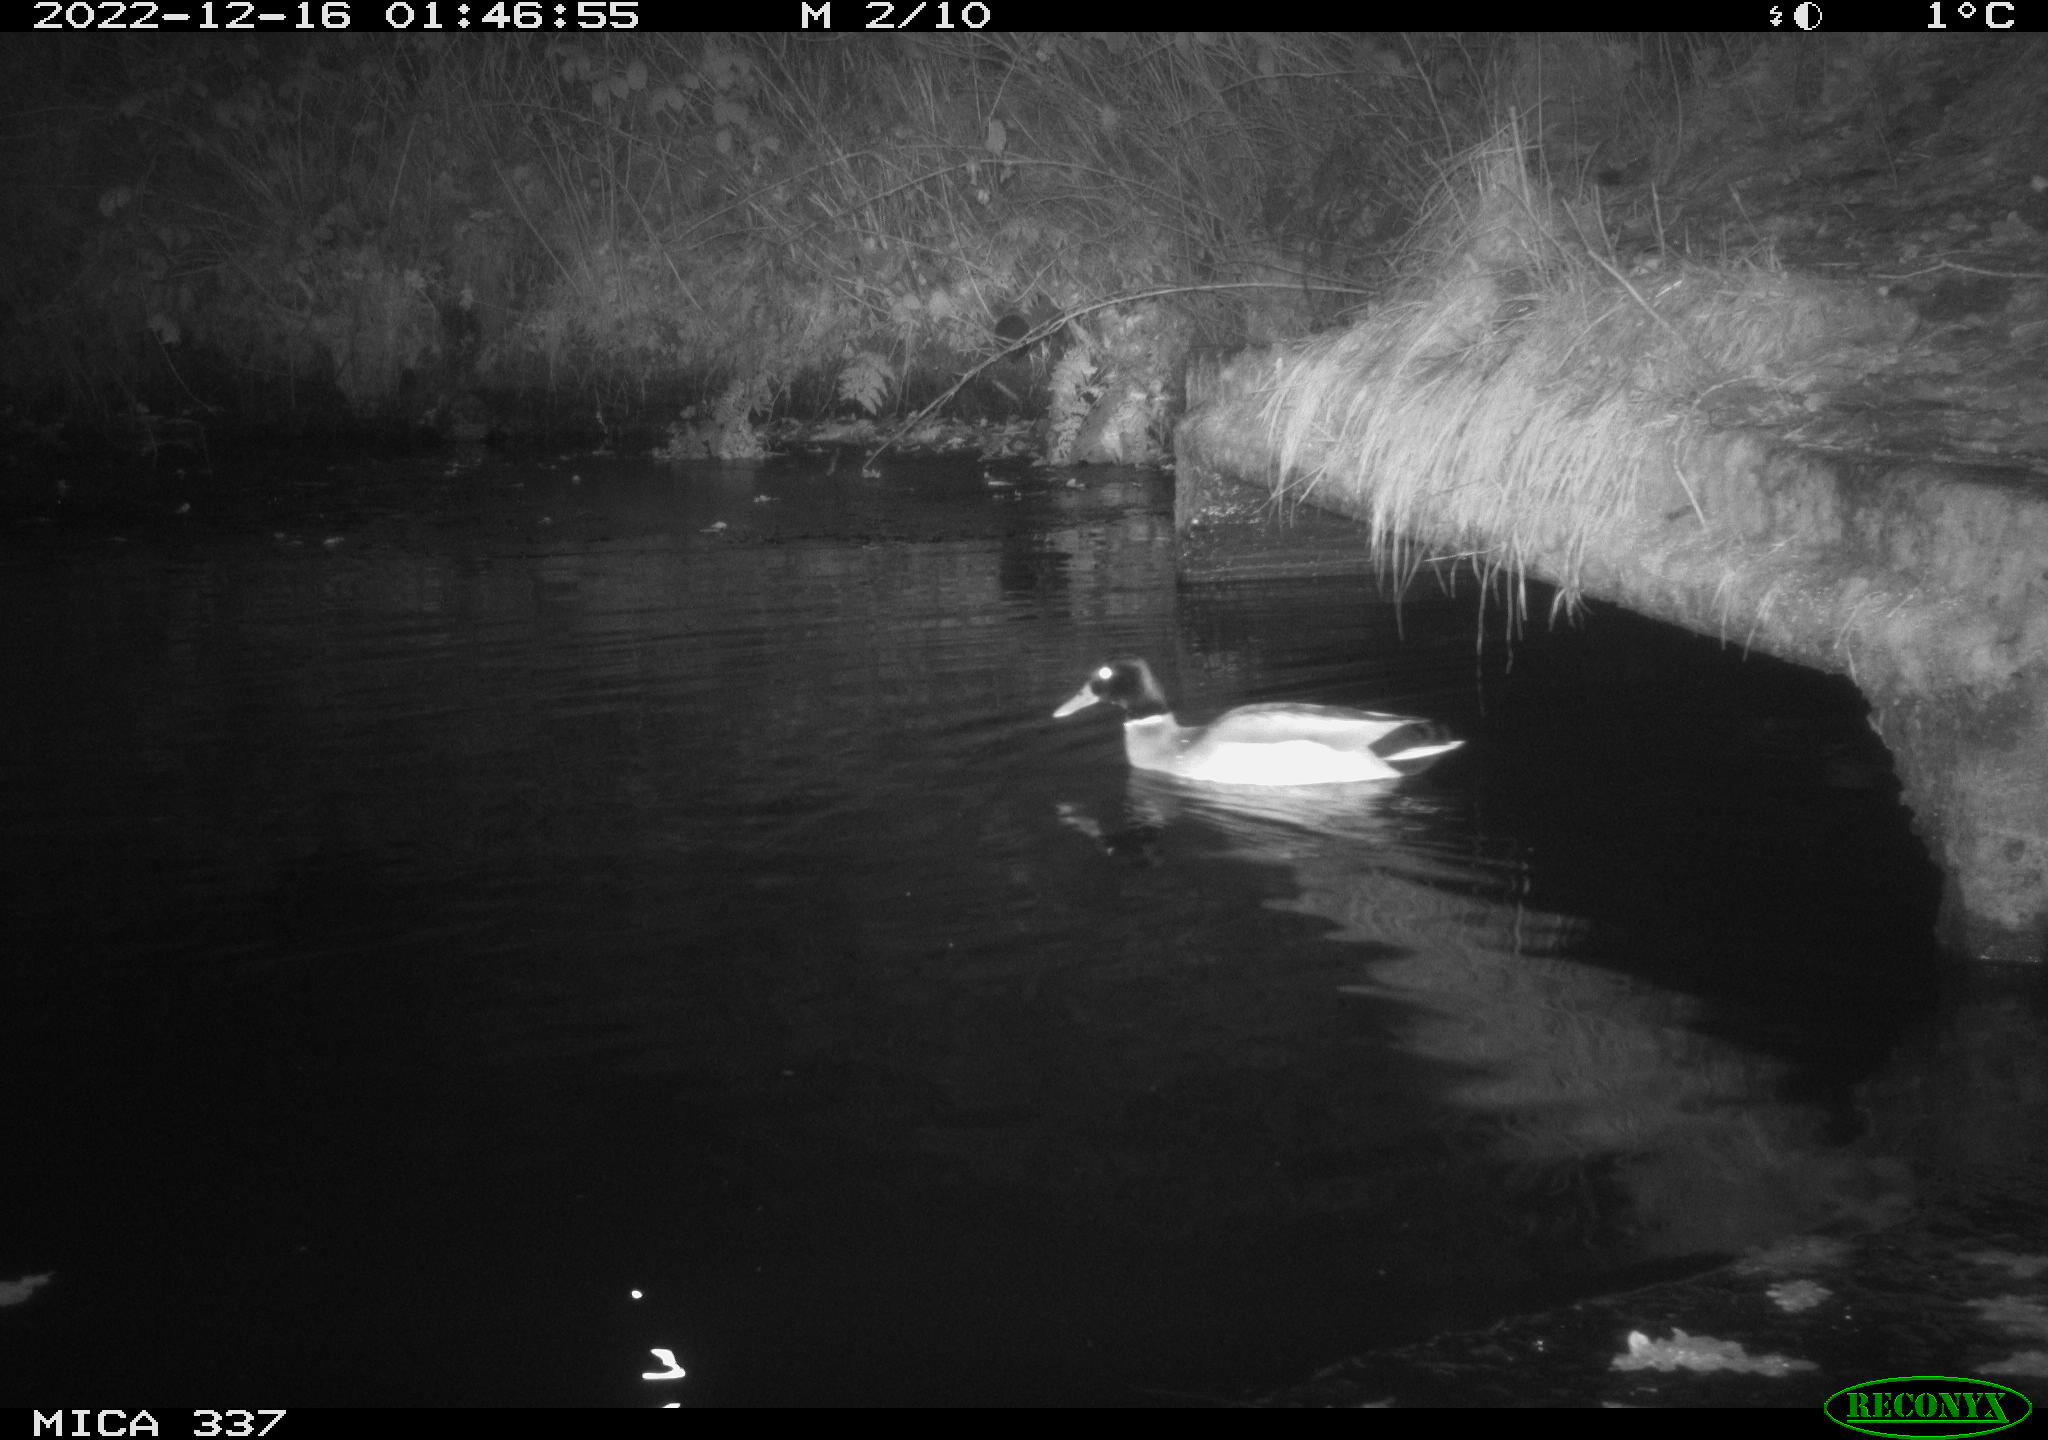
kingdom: Animalia
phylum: Chordata
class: Aves
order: Anseriformes
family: Anatidae
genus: Anas
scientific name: Anas
